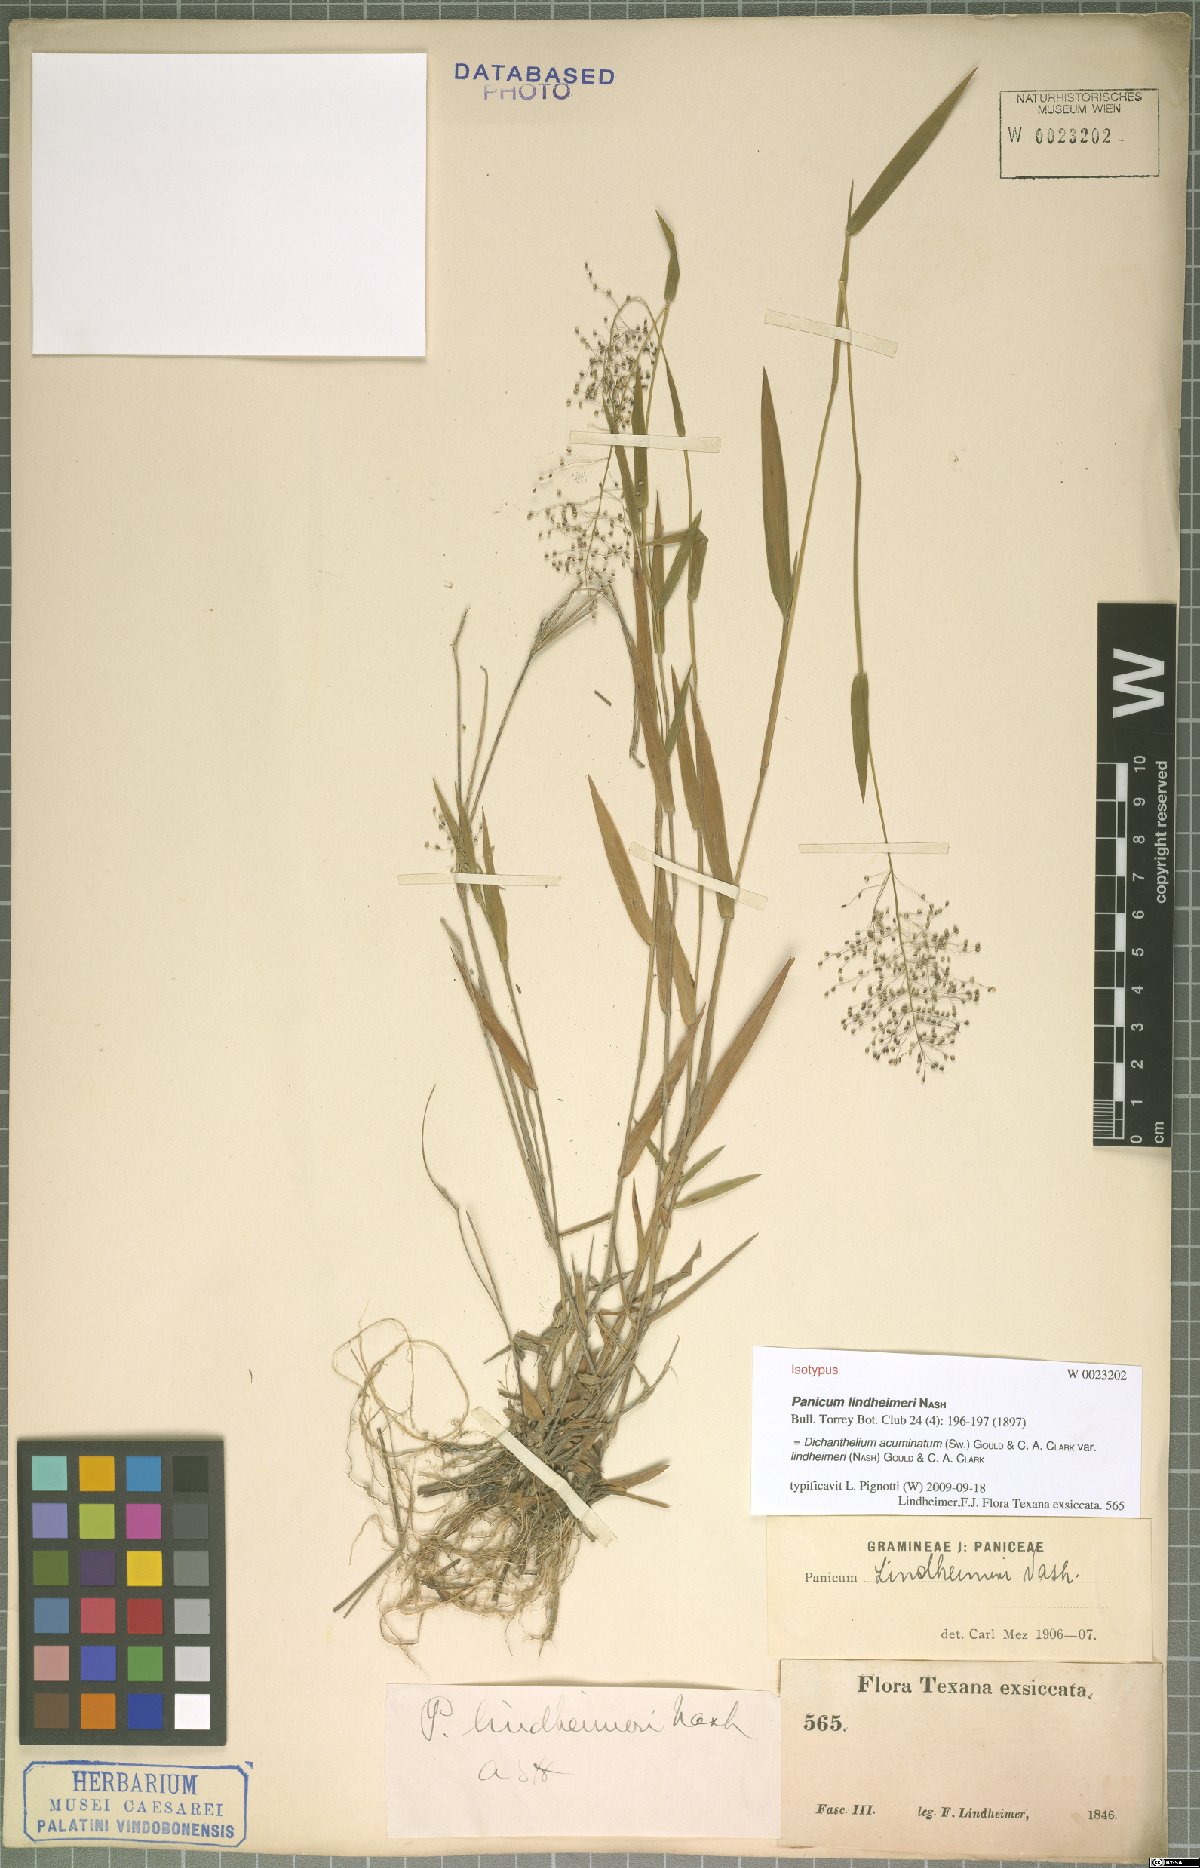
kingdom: Plantae
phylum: Tracheophyta
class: Liliopsida
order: Poales
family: Poaceae
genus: Dichanthelium
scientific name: Dichanthelium lindheimeri
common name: Lindheimer's panicgrass
